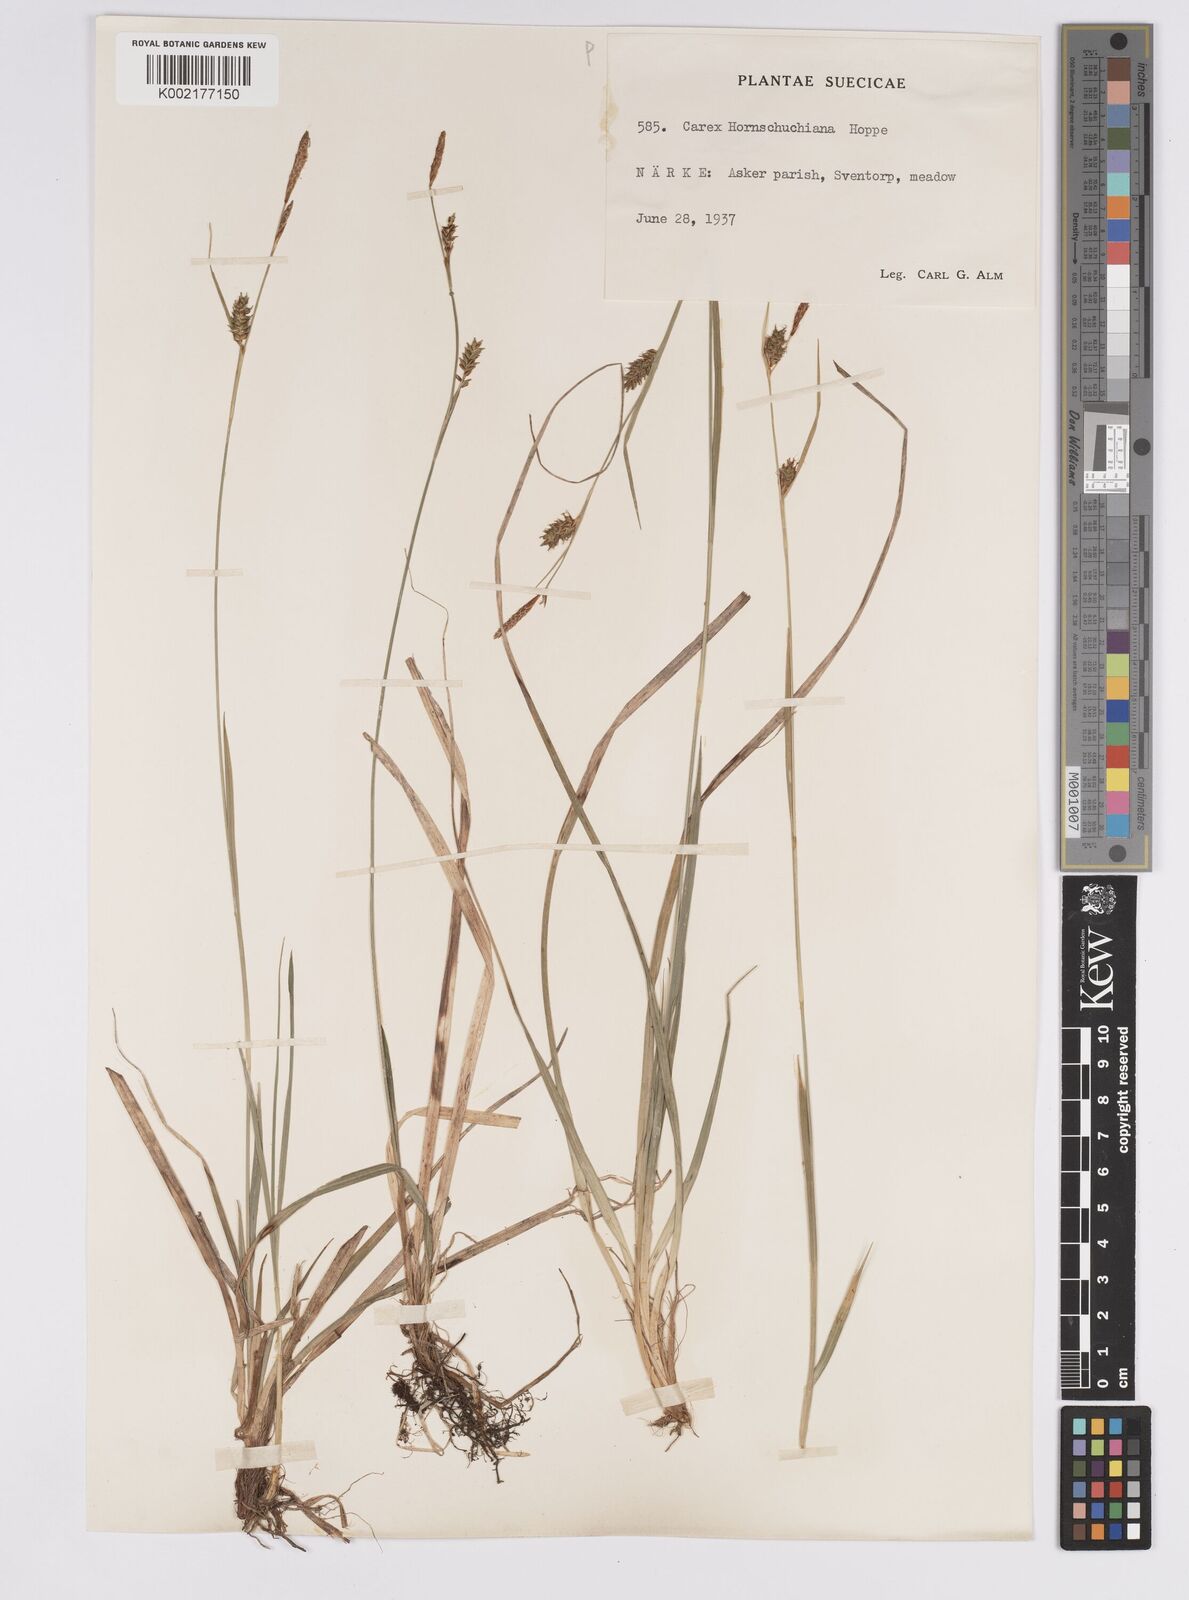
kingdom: Plantae
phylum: Tracheophyta
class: Liliopsida
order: Poales
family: Cyperaceae
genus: Carex
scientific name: Carex hostiana
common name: Tawny sedge
